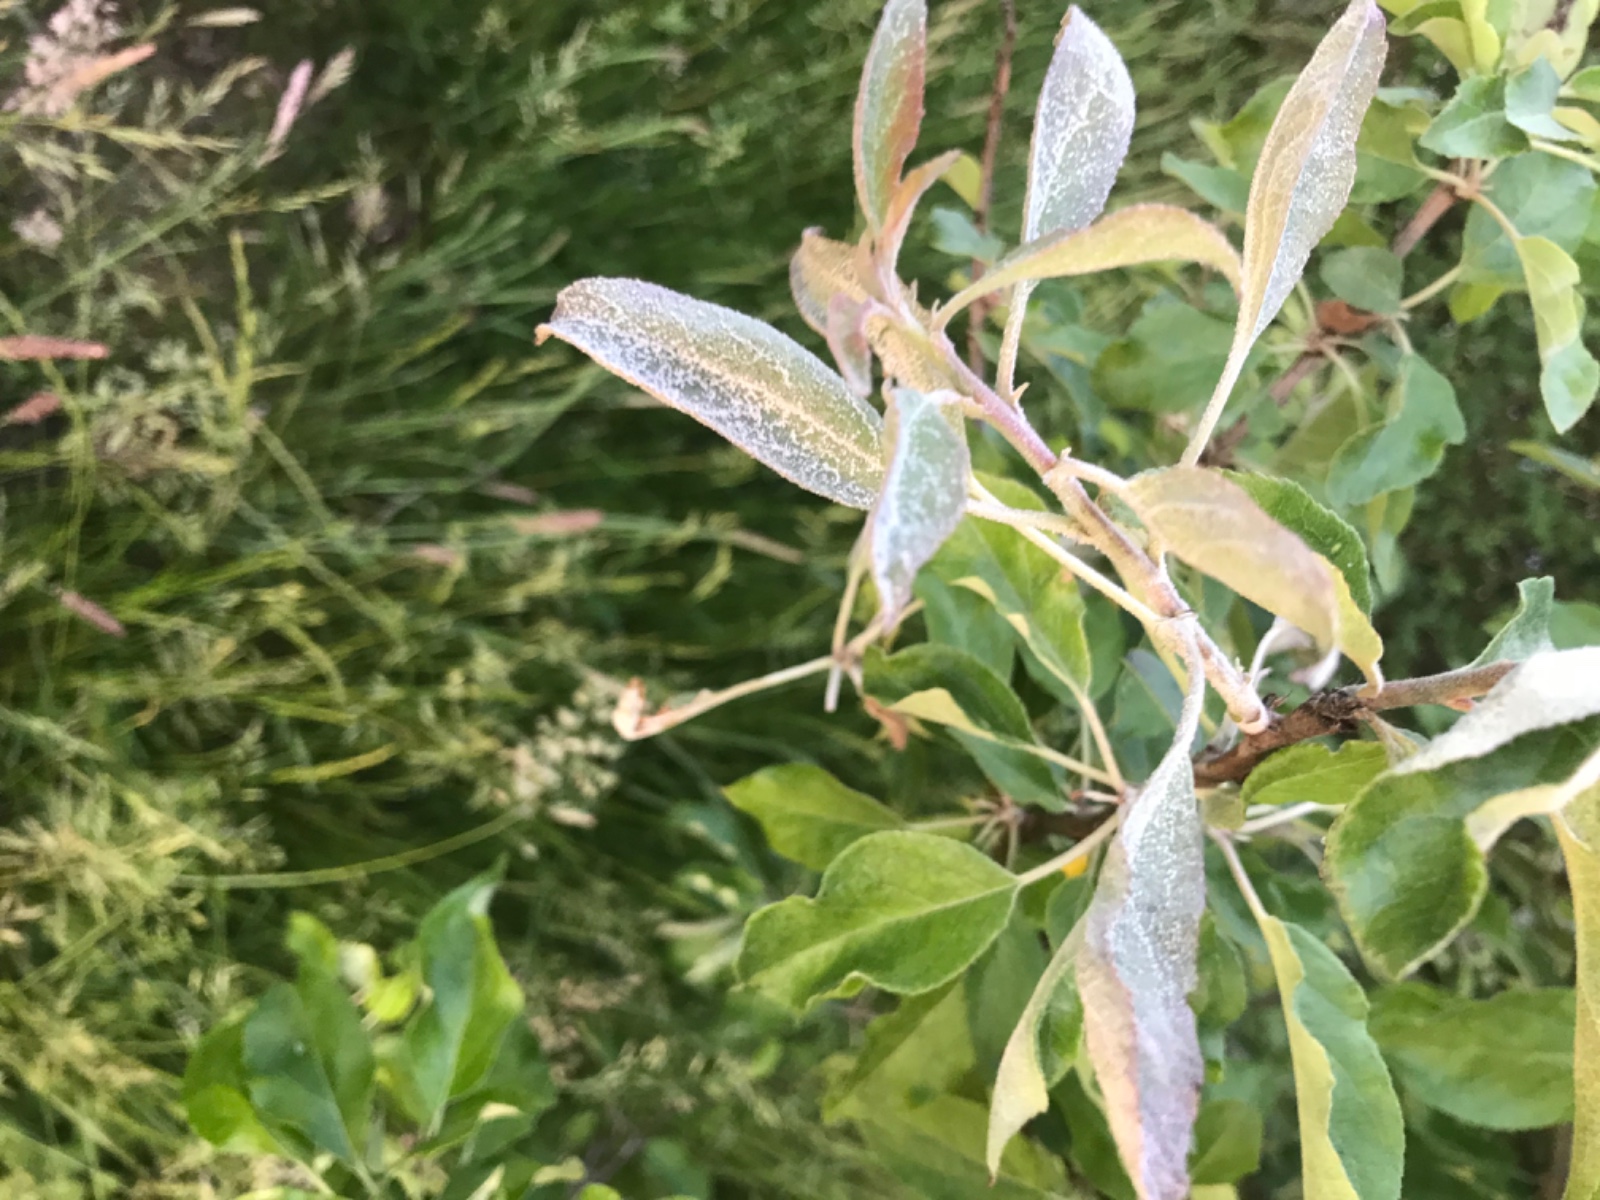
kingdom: Fungi
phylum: Ascomycota
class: Leotiomycetes
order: Helotiales
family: Erysiphaceae
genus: Podosphaera
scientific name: Podosphaera leucotricha
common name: æble-meldug
